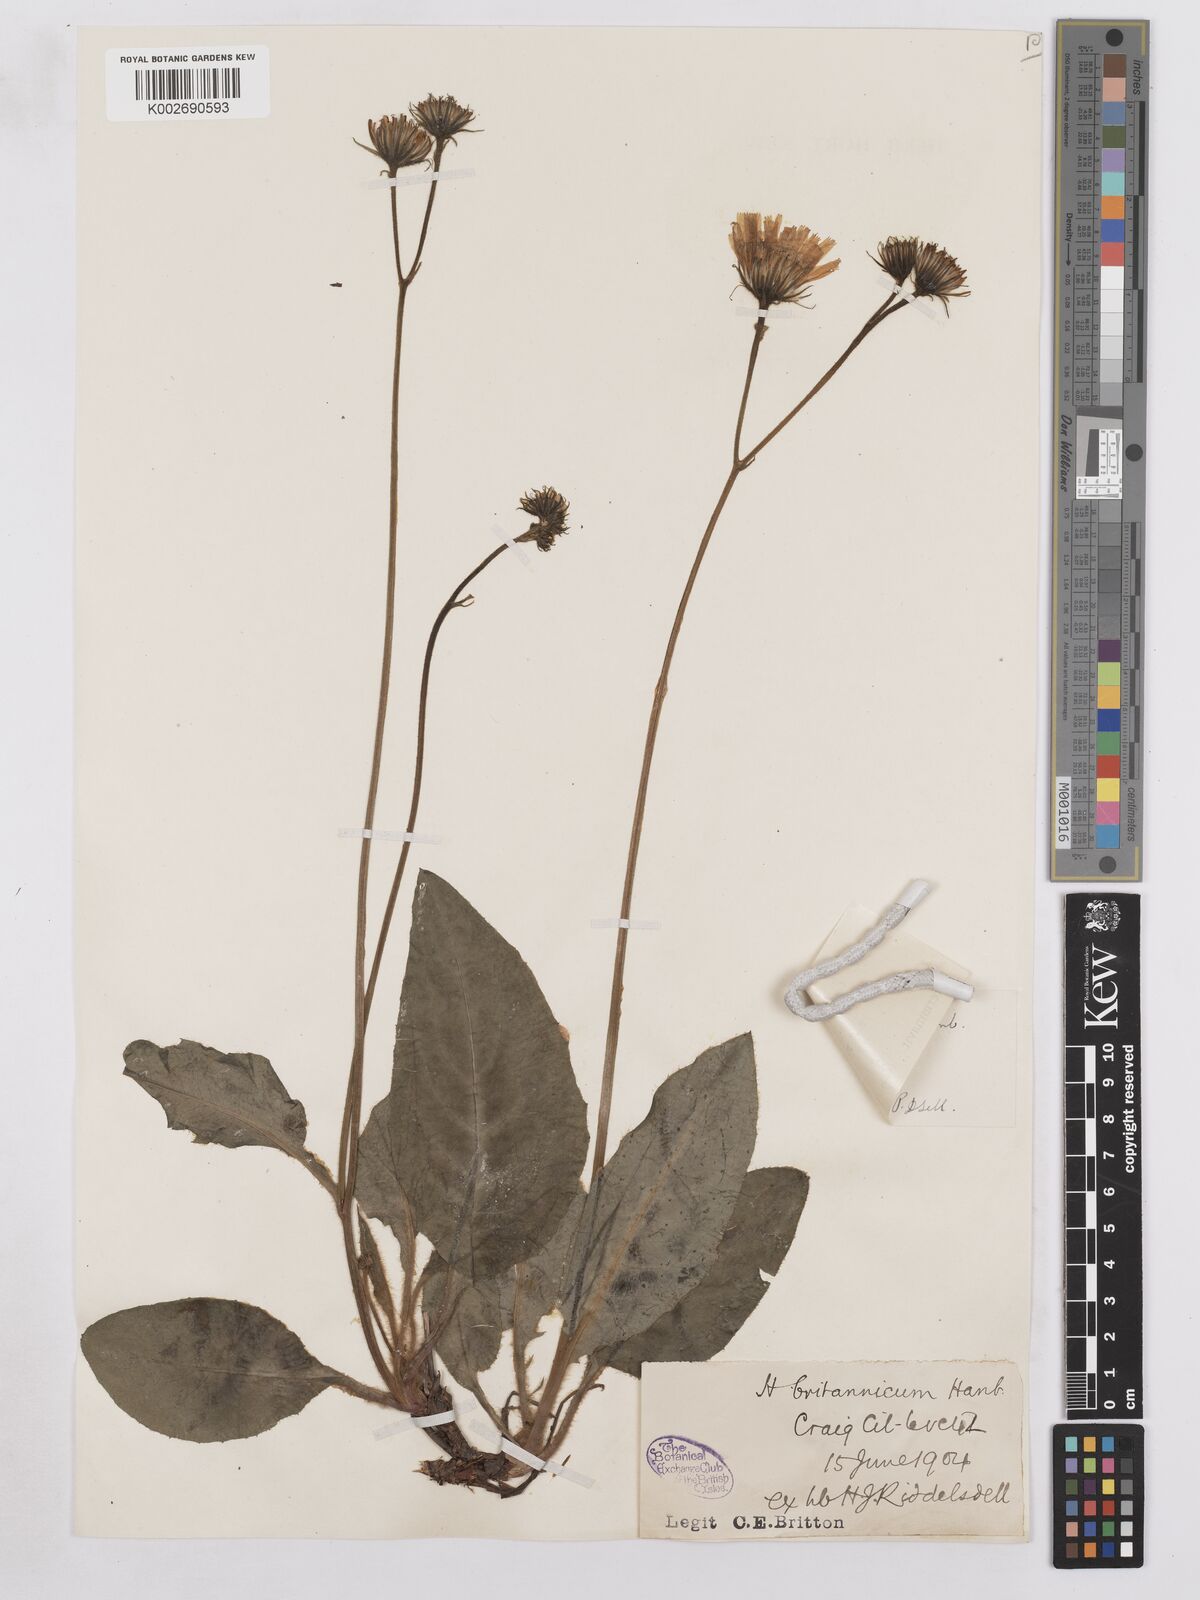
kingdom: Plantae
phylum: Tracheophyta
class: Magnoliopsida
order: Asterales
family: Asteraceae
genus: Hieracium
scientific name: Hieracium breconense
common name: Brecon hawkweed
